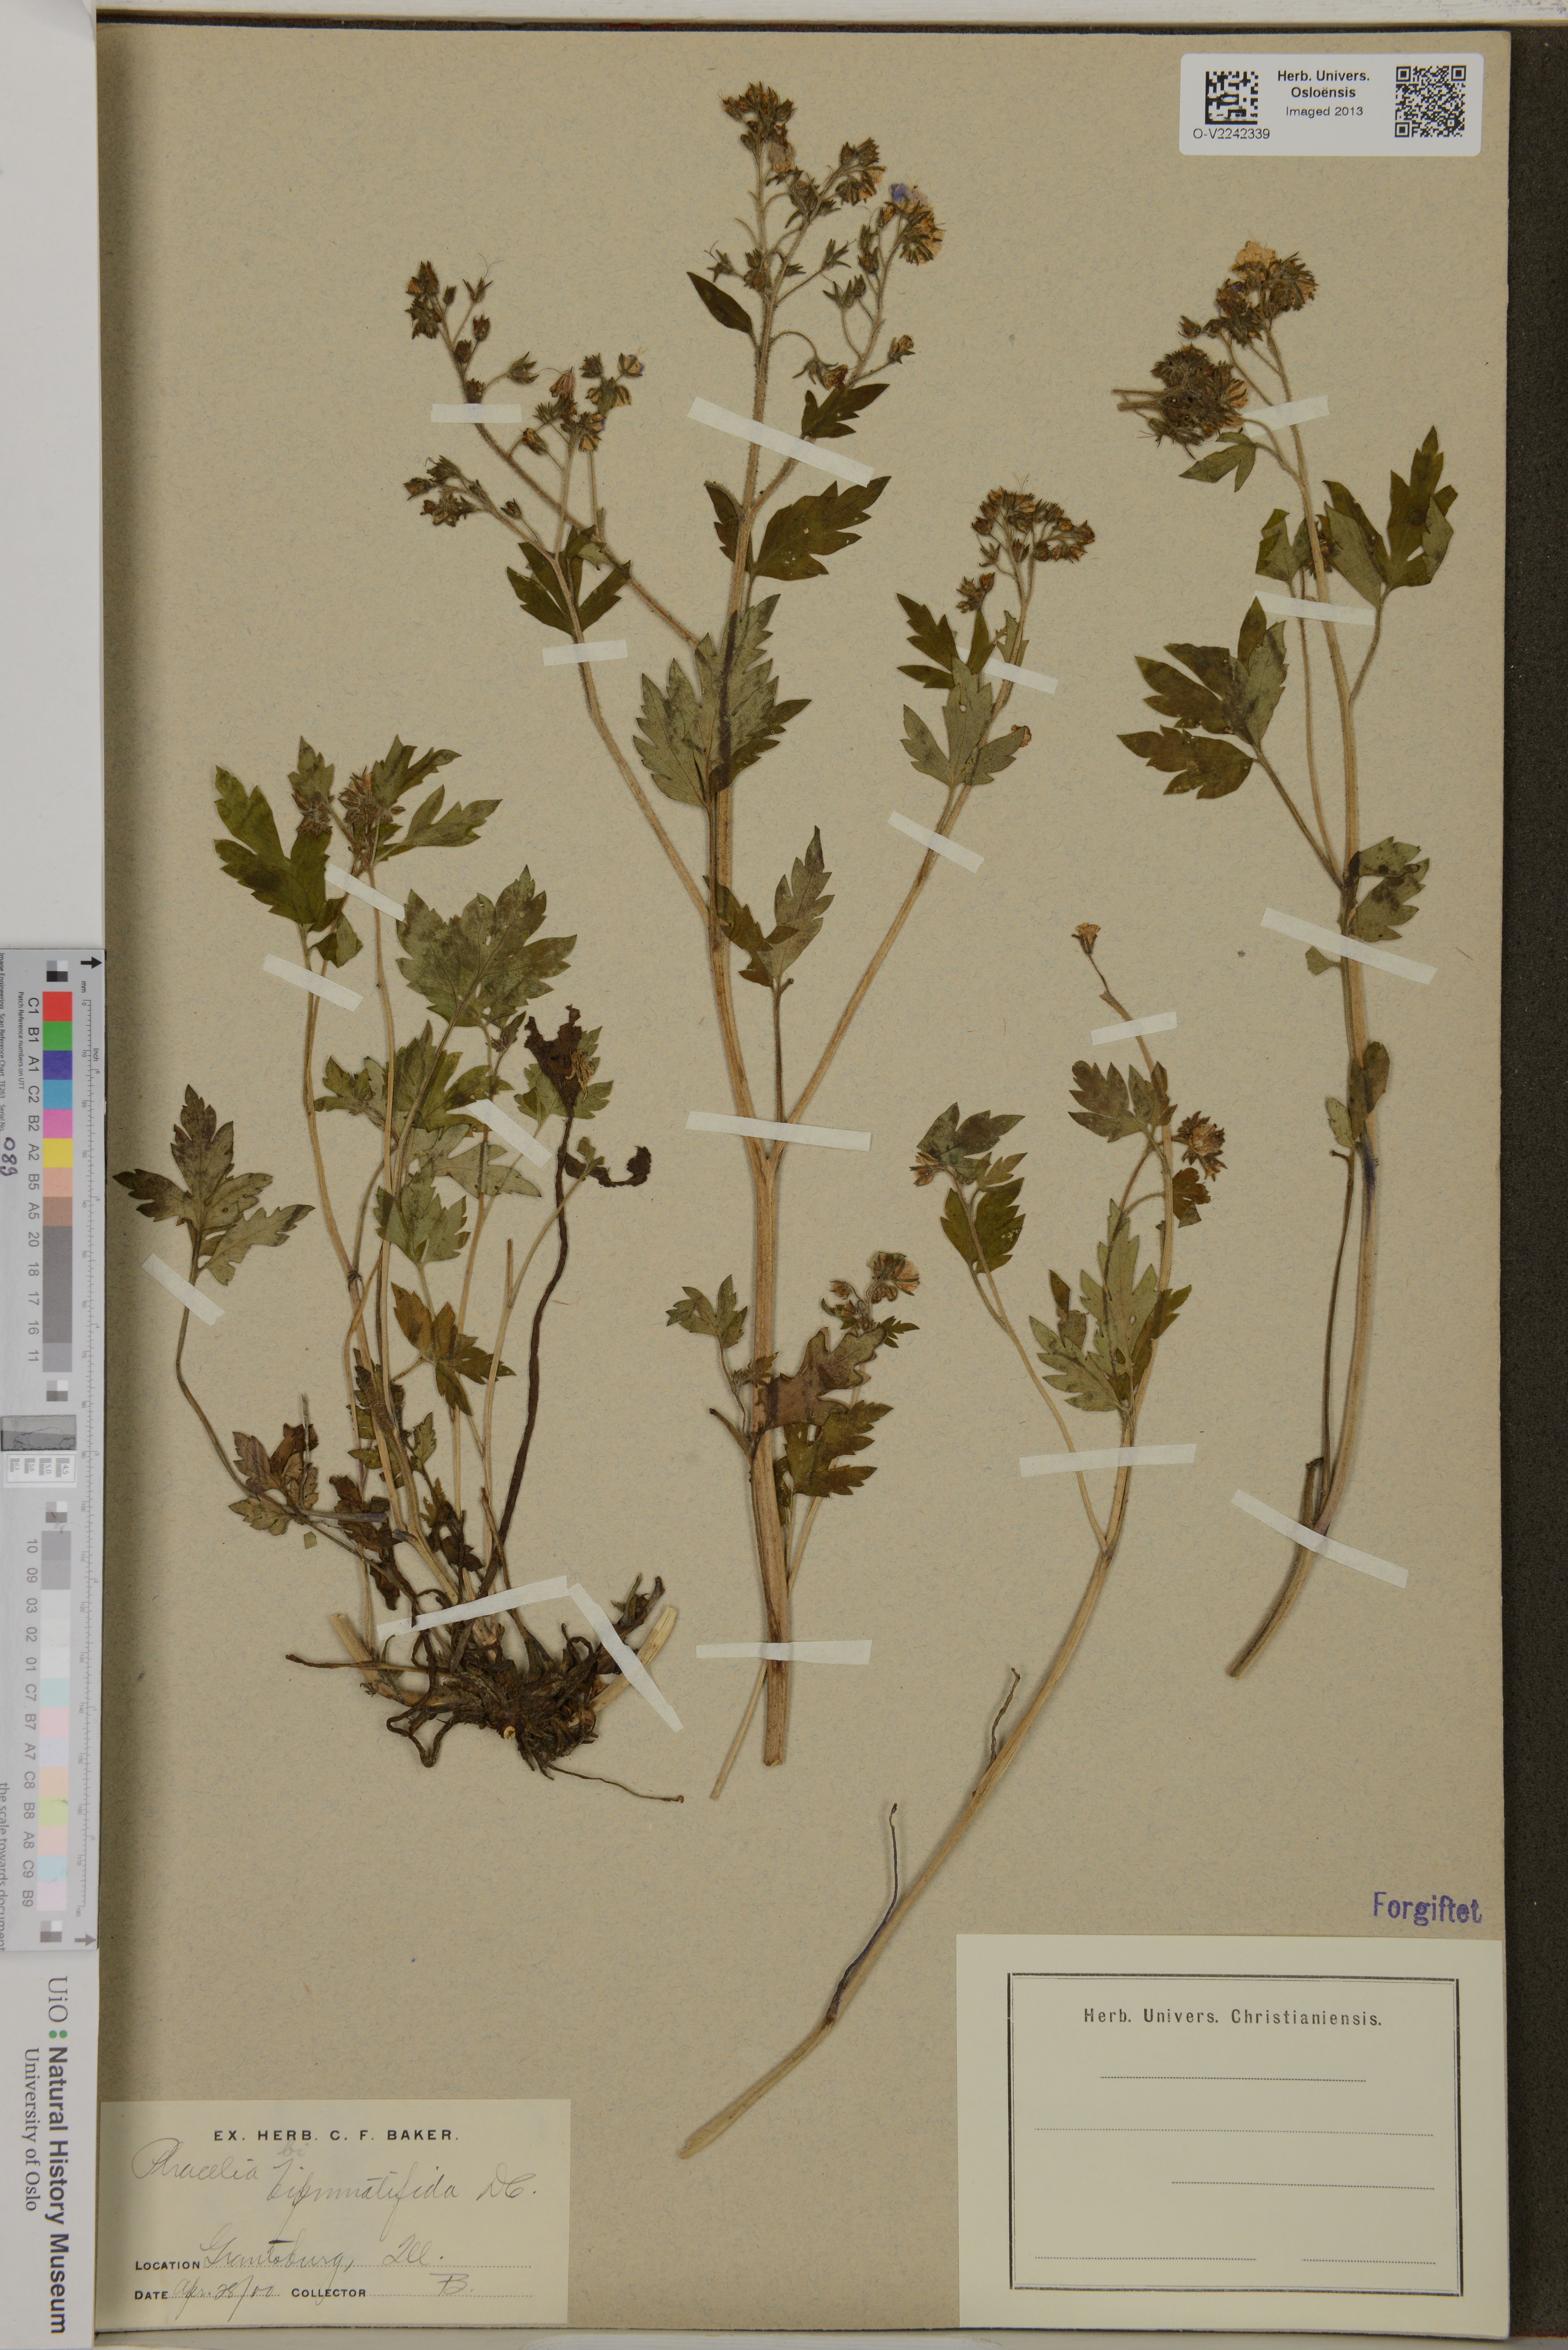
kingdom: Plantae
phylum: Tracheophyta
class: Magnoliopsida
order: Boraginales
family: Hydrophyllaceae
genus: Phacelia
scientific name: Phacelia bipinnatifida
